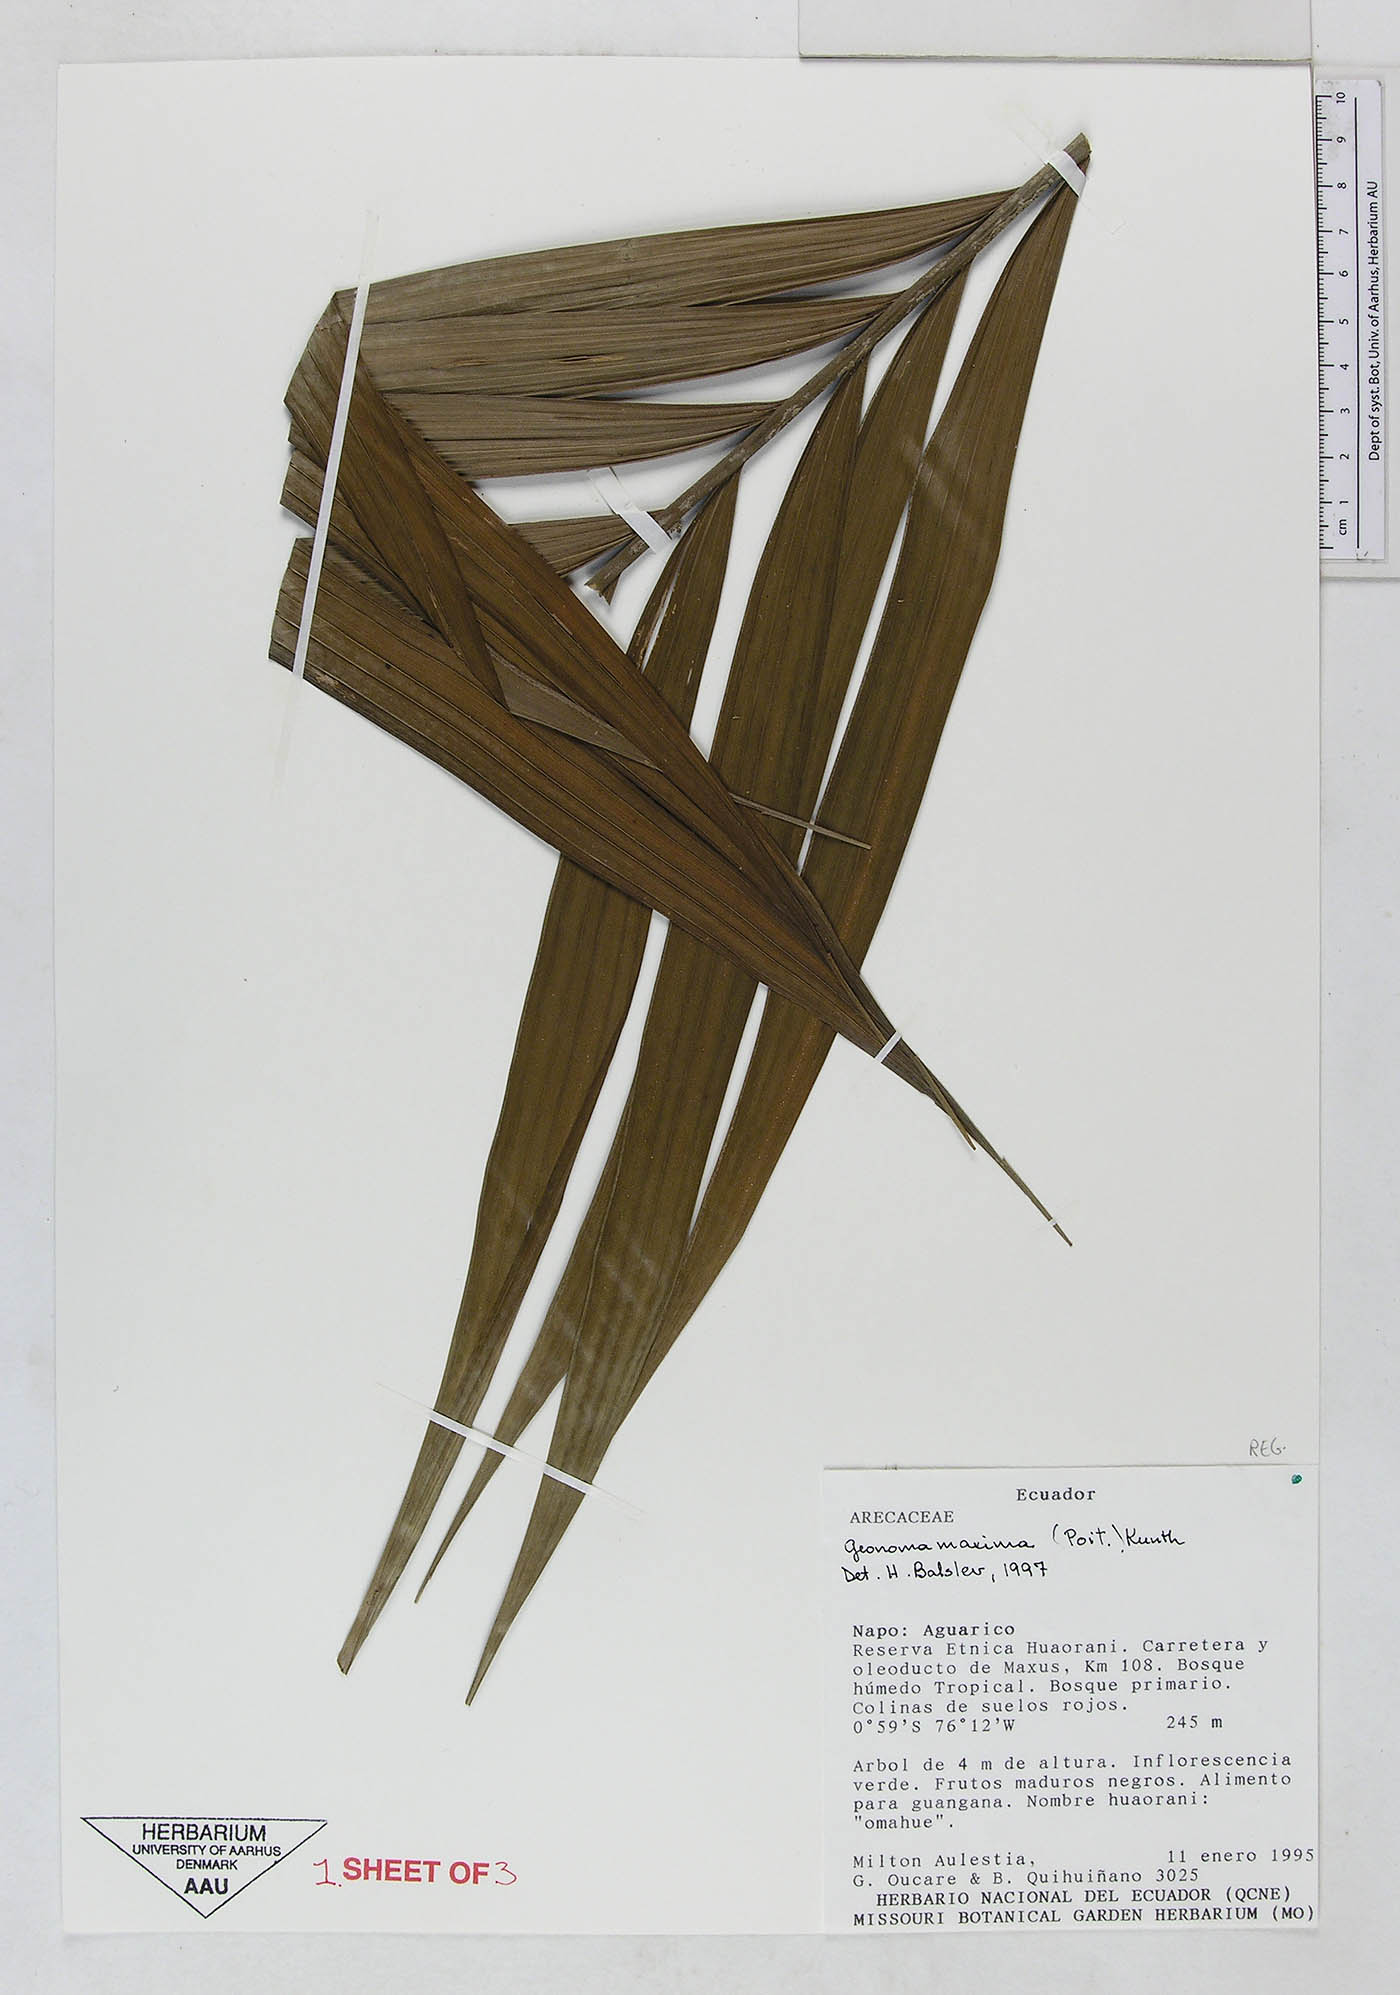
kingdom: Plantae
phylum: Tracheophyta
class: Liliopsida
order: Arecales
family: Arecaceae
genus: Geonoma
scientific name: Geonoma maxima
